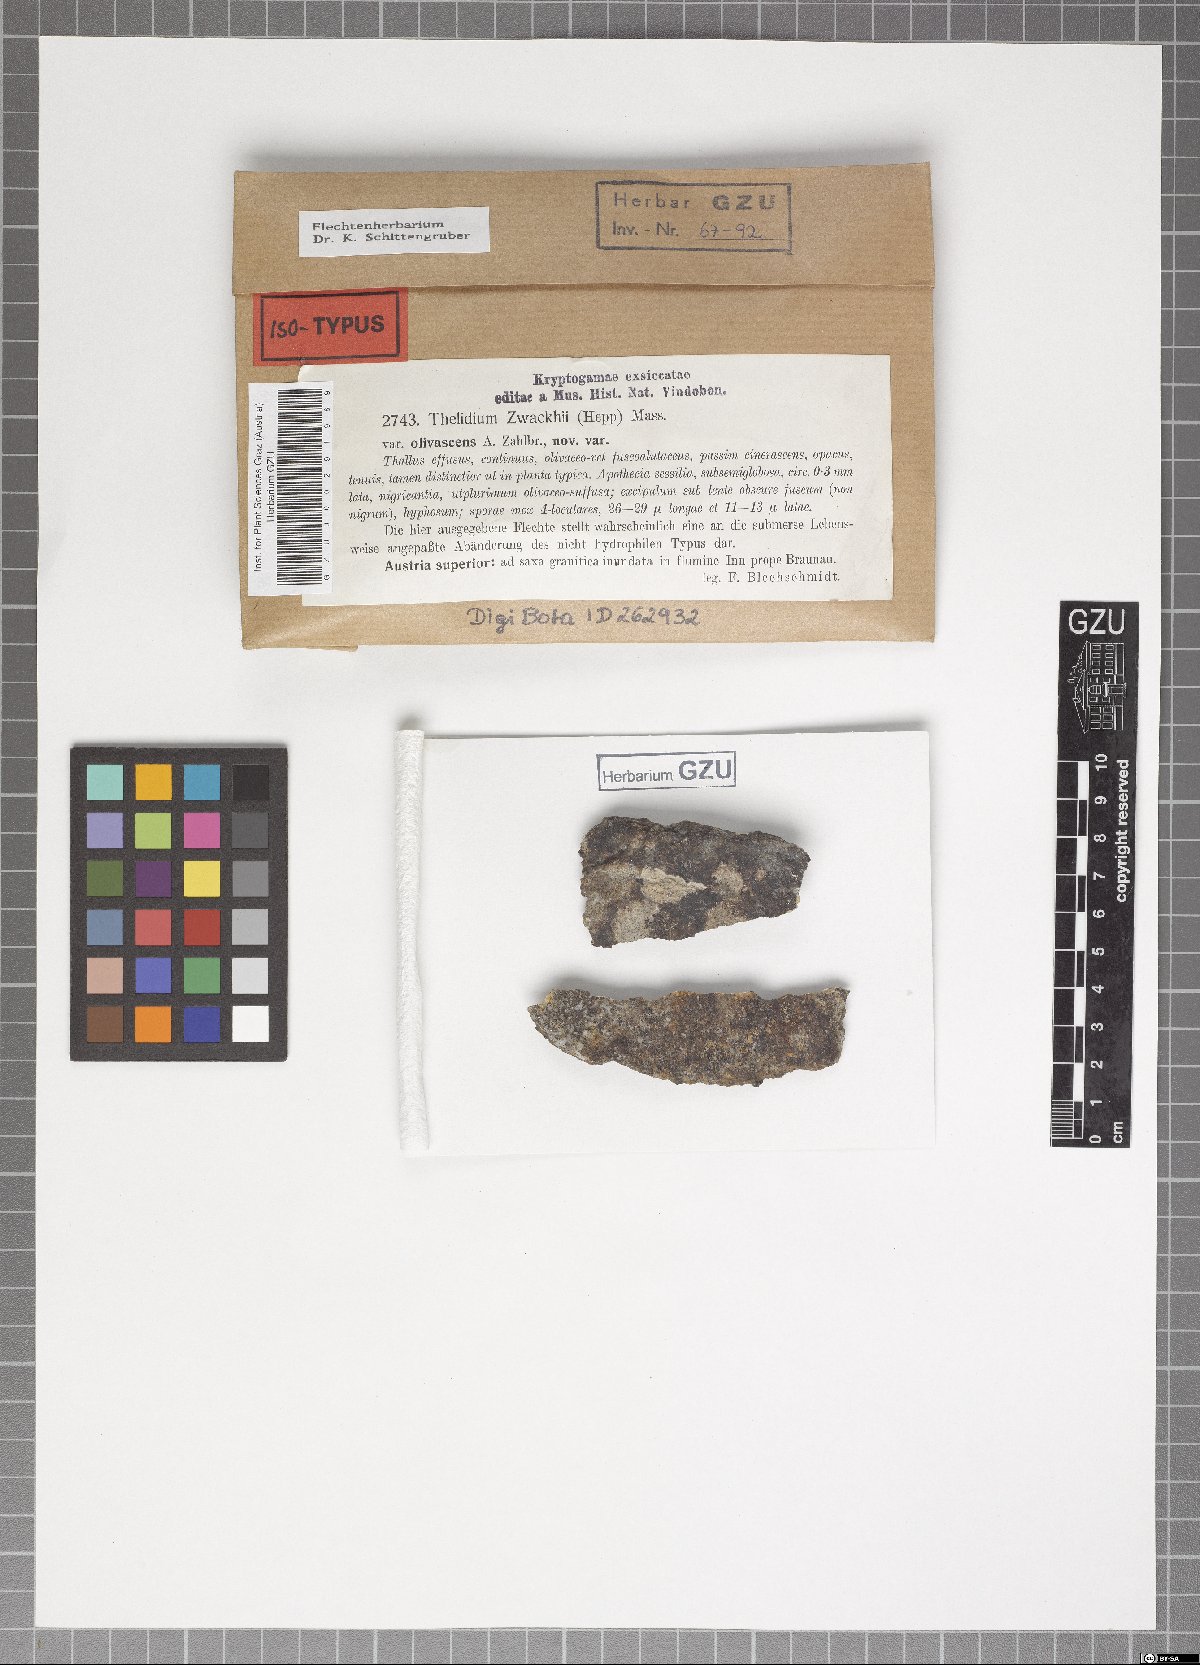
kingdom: Fungi
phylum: Ascomycota
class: Eurotiomycetes
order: Verrucariales
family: Verrucariaceae
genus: Thelidium
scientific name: Thelidium zwackhii
